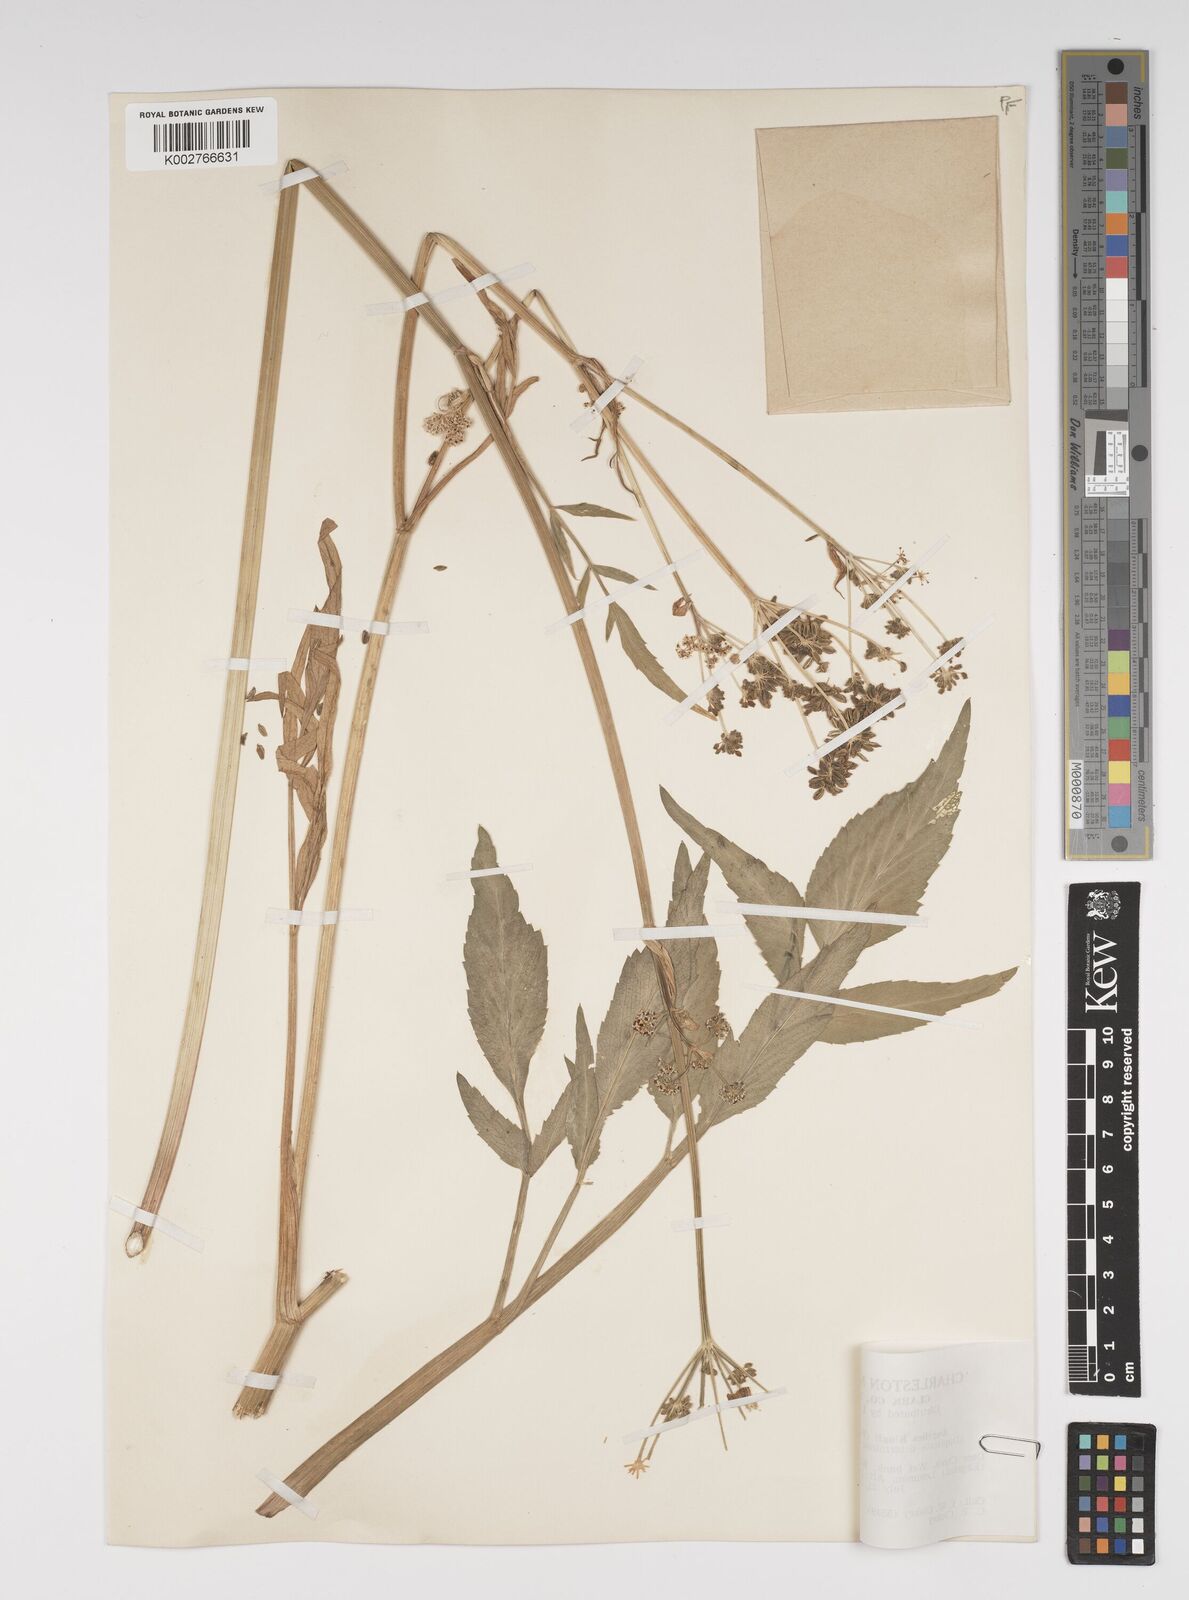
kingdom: Plantae
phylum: Tracheophyta
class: Magnoliopsida
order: Apiales
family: Apiaceae
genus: Angelica
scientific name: Angelica kingii
